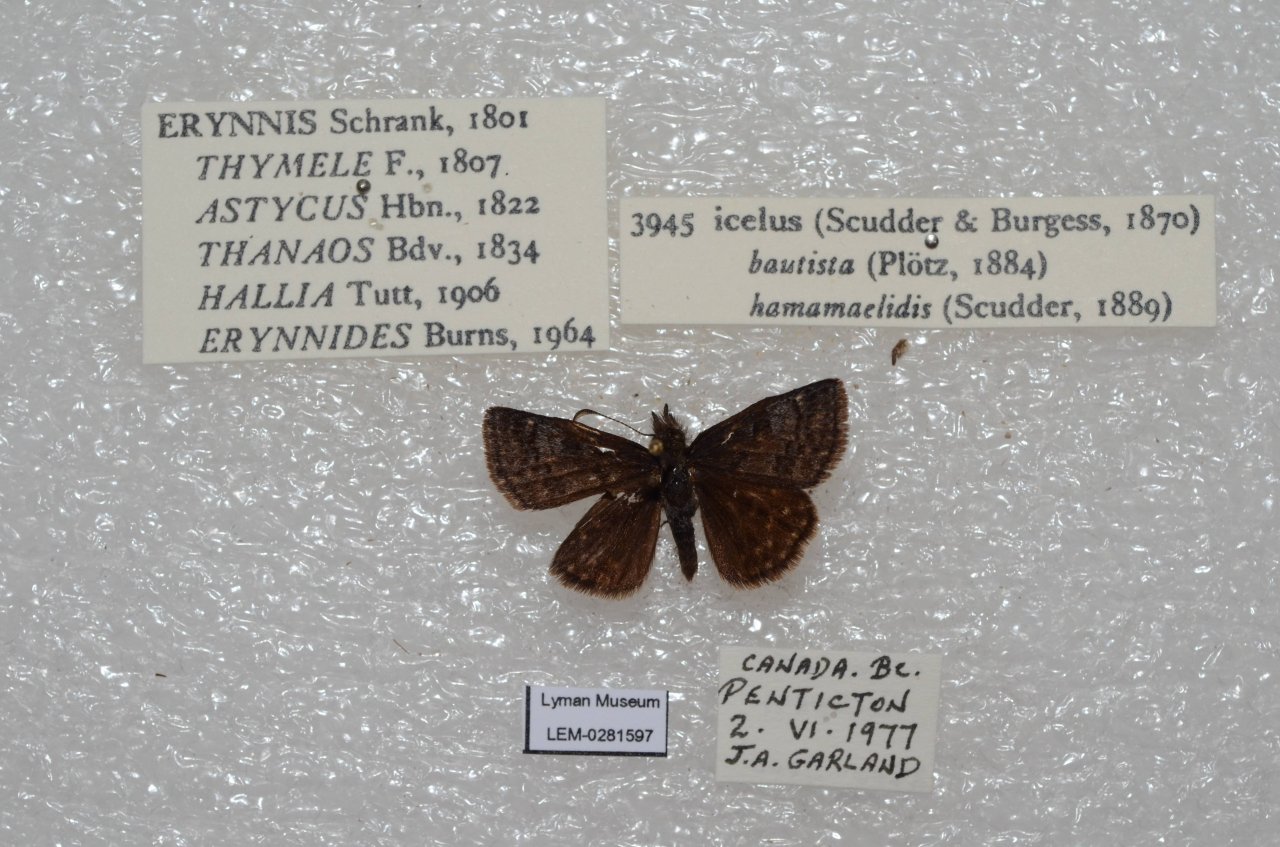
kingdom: Animalia
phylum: Arthropoda
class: Insecta
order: Lepidoptera
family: Hesperiidae
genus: Erynnis
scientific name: Erynnis icelus
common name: Dreamy Duskywing
